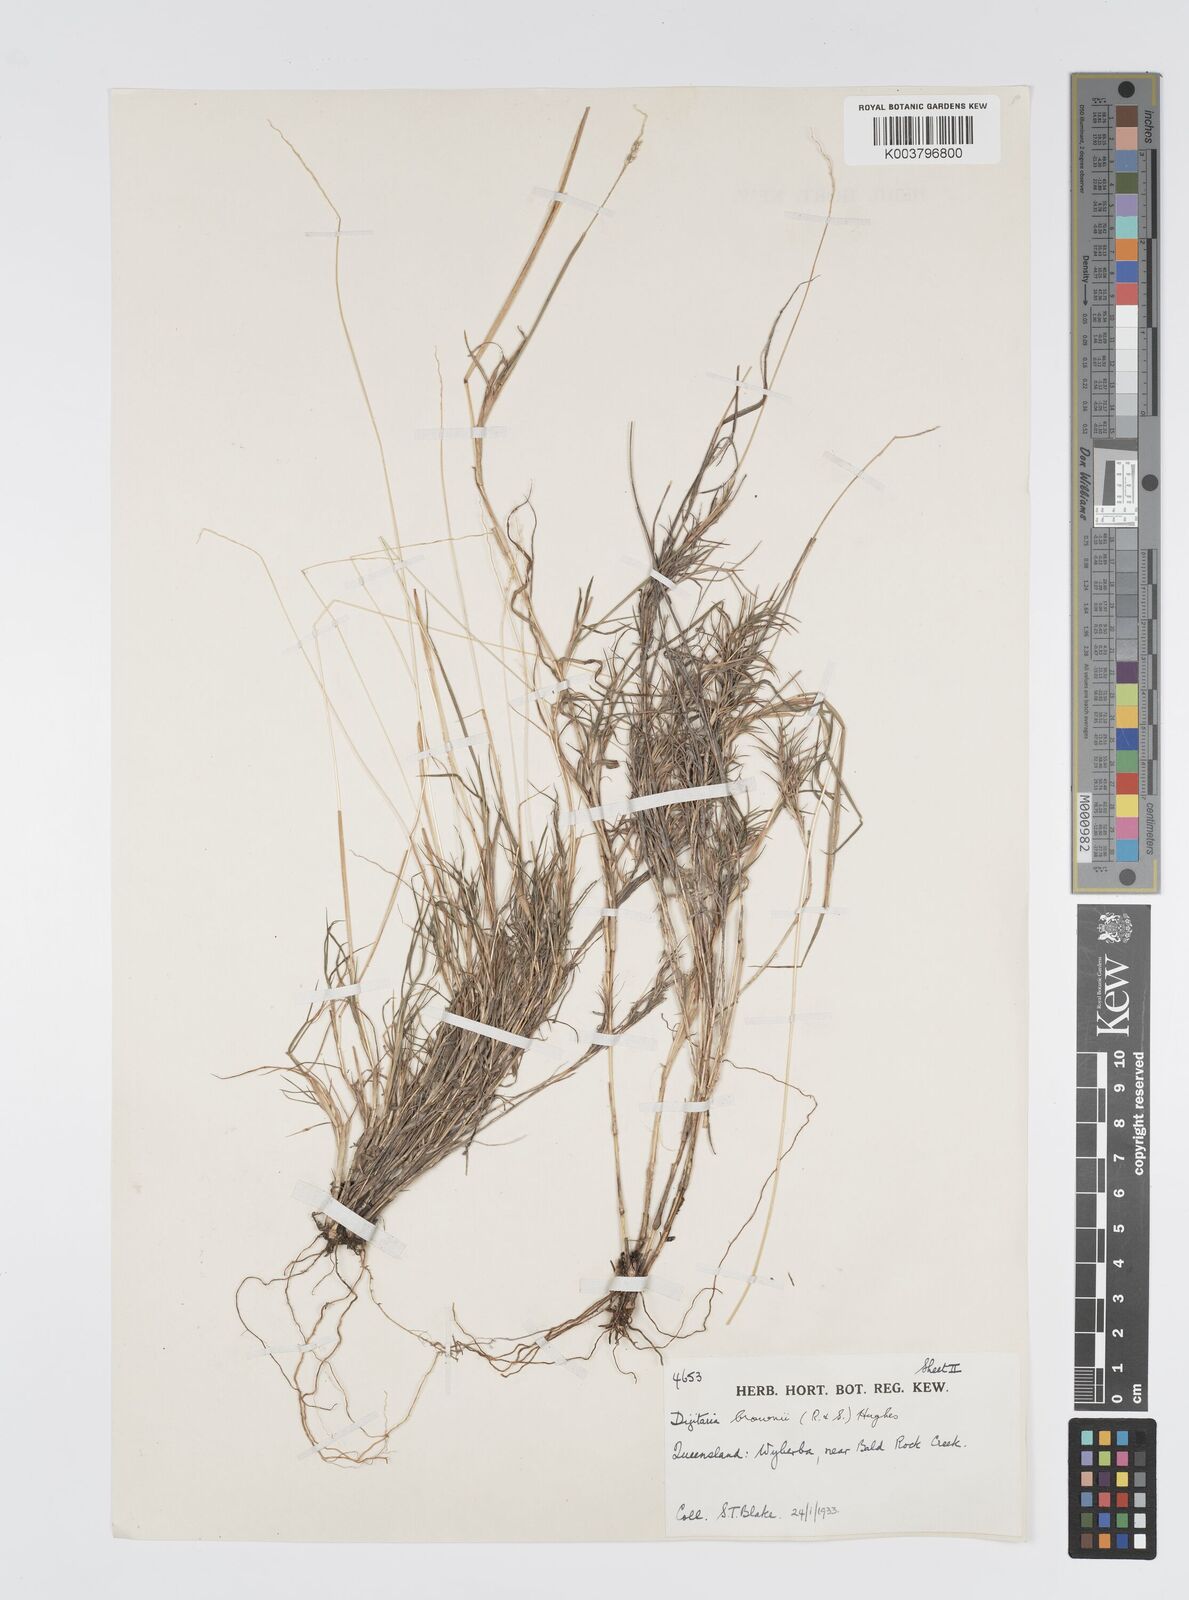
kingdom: Plantae
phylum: Tracheophyta
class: Liliopsida
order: Poales
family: Poaceae
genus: Digitaria
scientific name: Digitaria brownii
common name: Cotton grass
